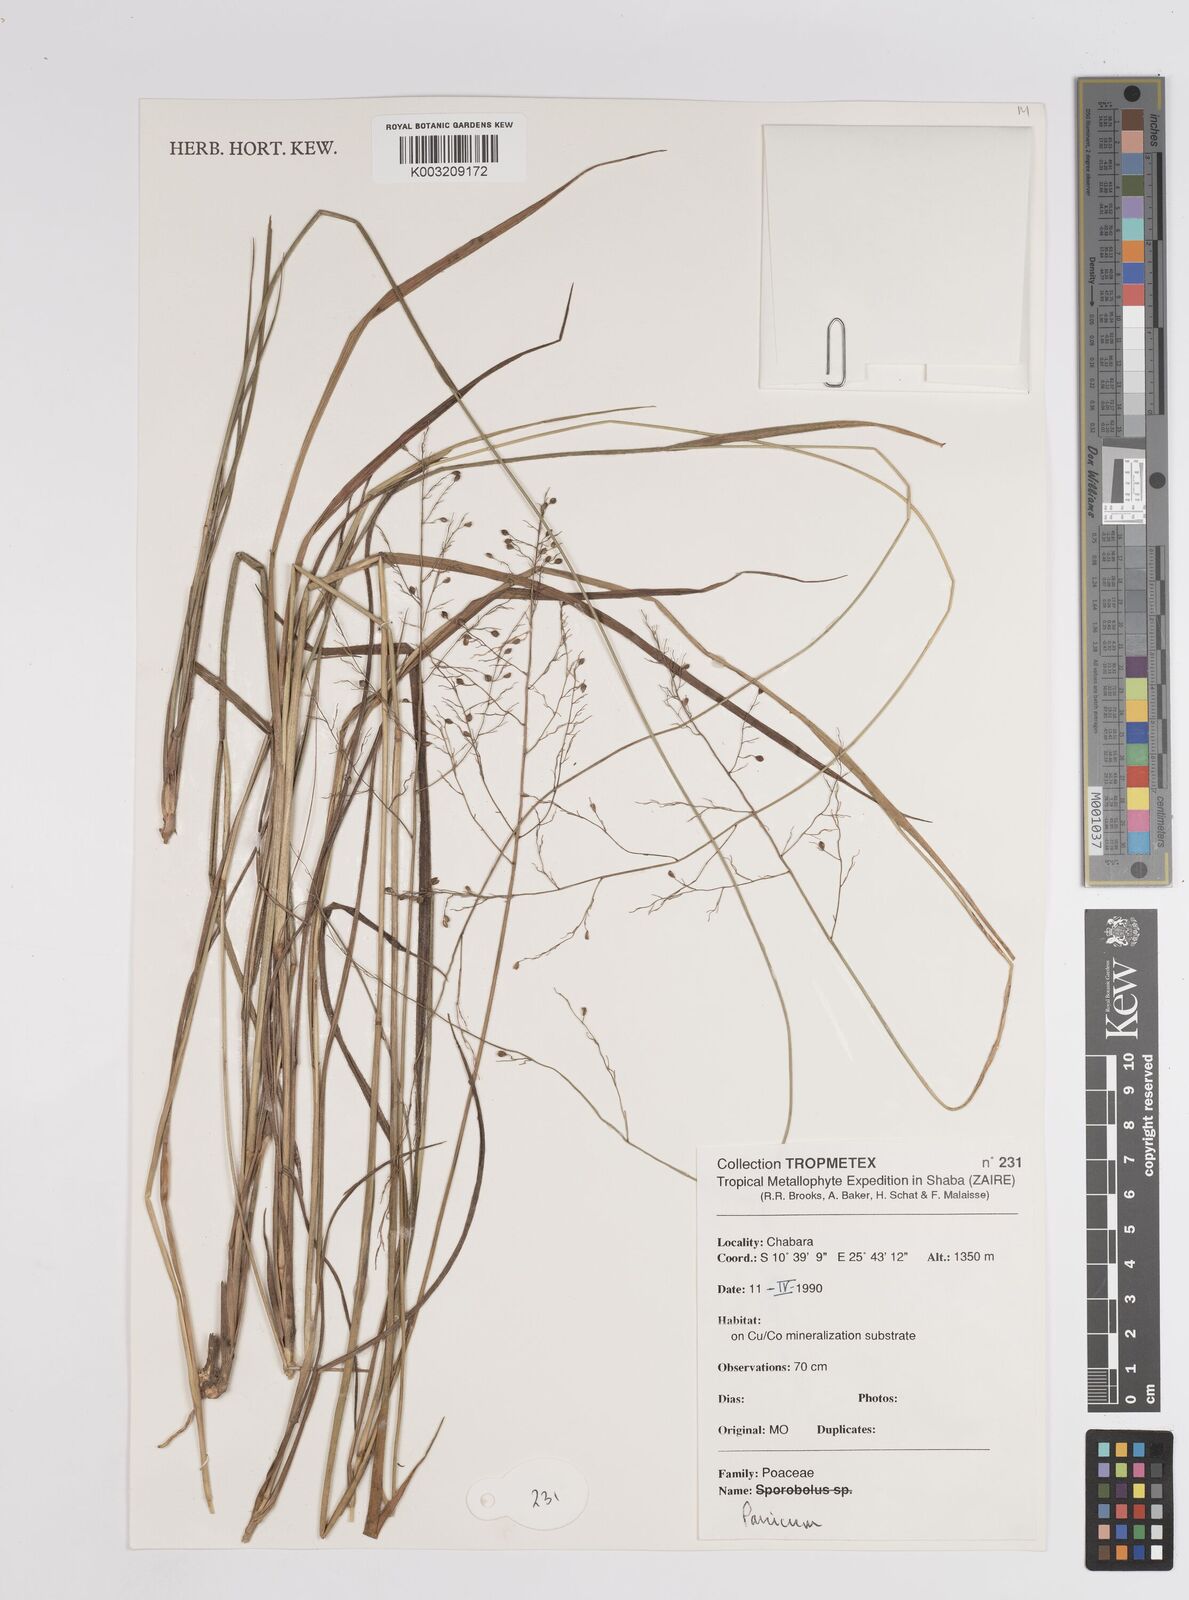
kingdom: Plantae
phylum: Tracheophyta
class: Liliopsida
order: Poales
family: Poaceae
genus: Panicum
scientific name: Panicum
